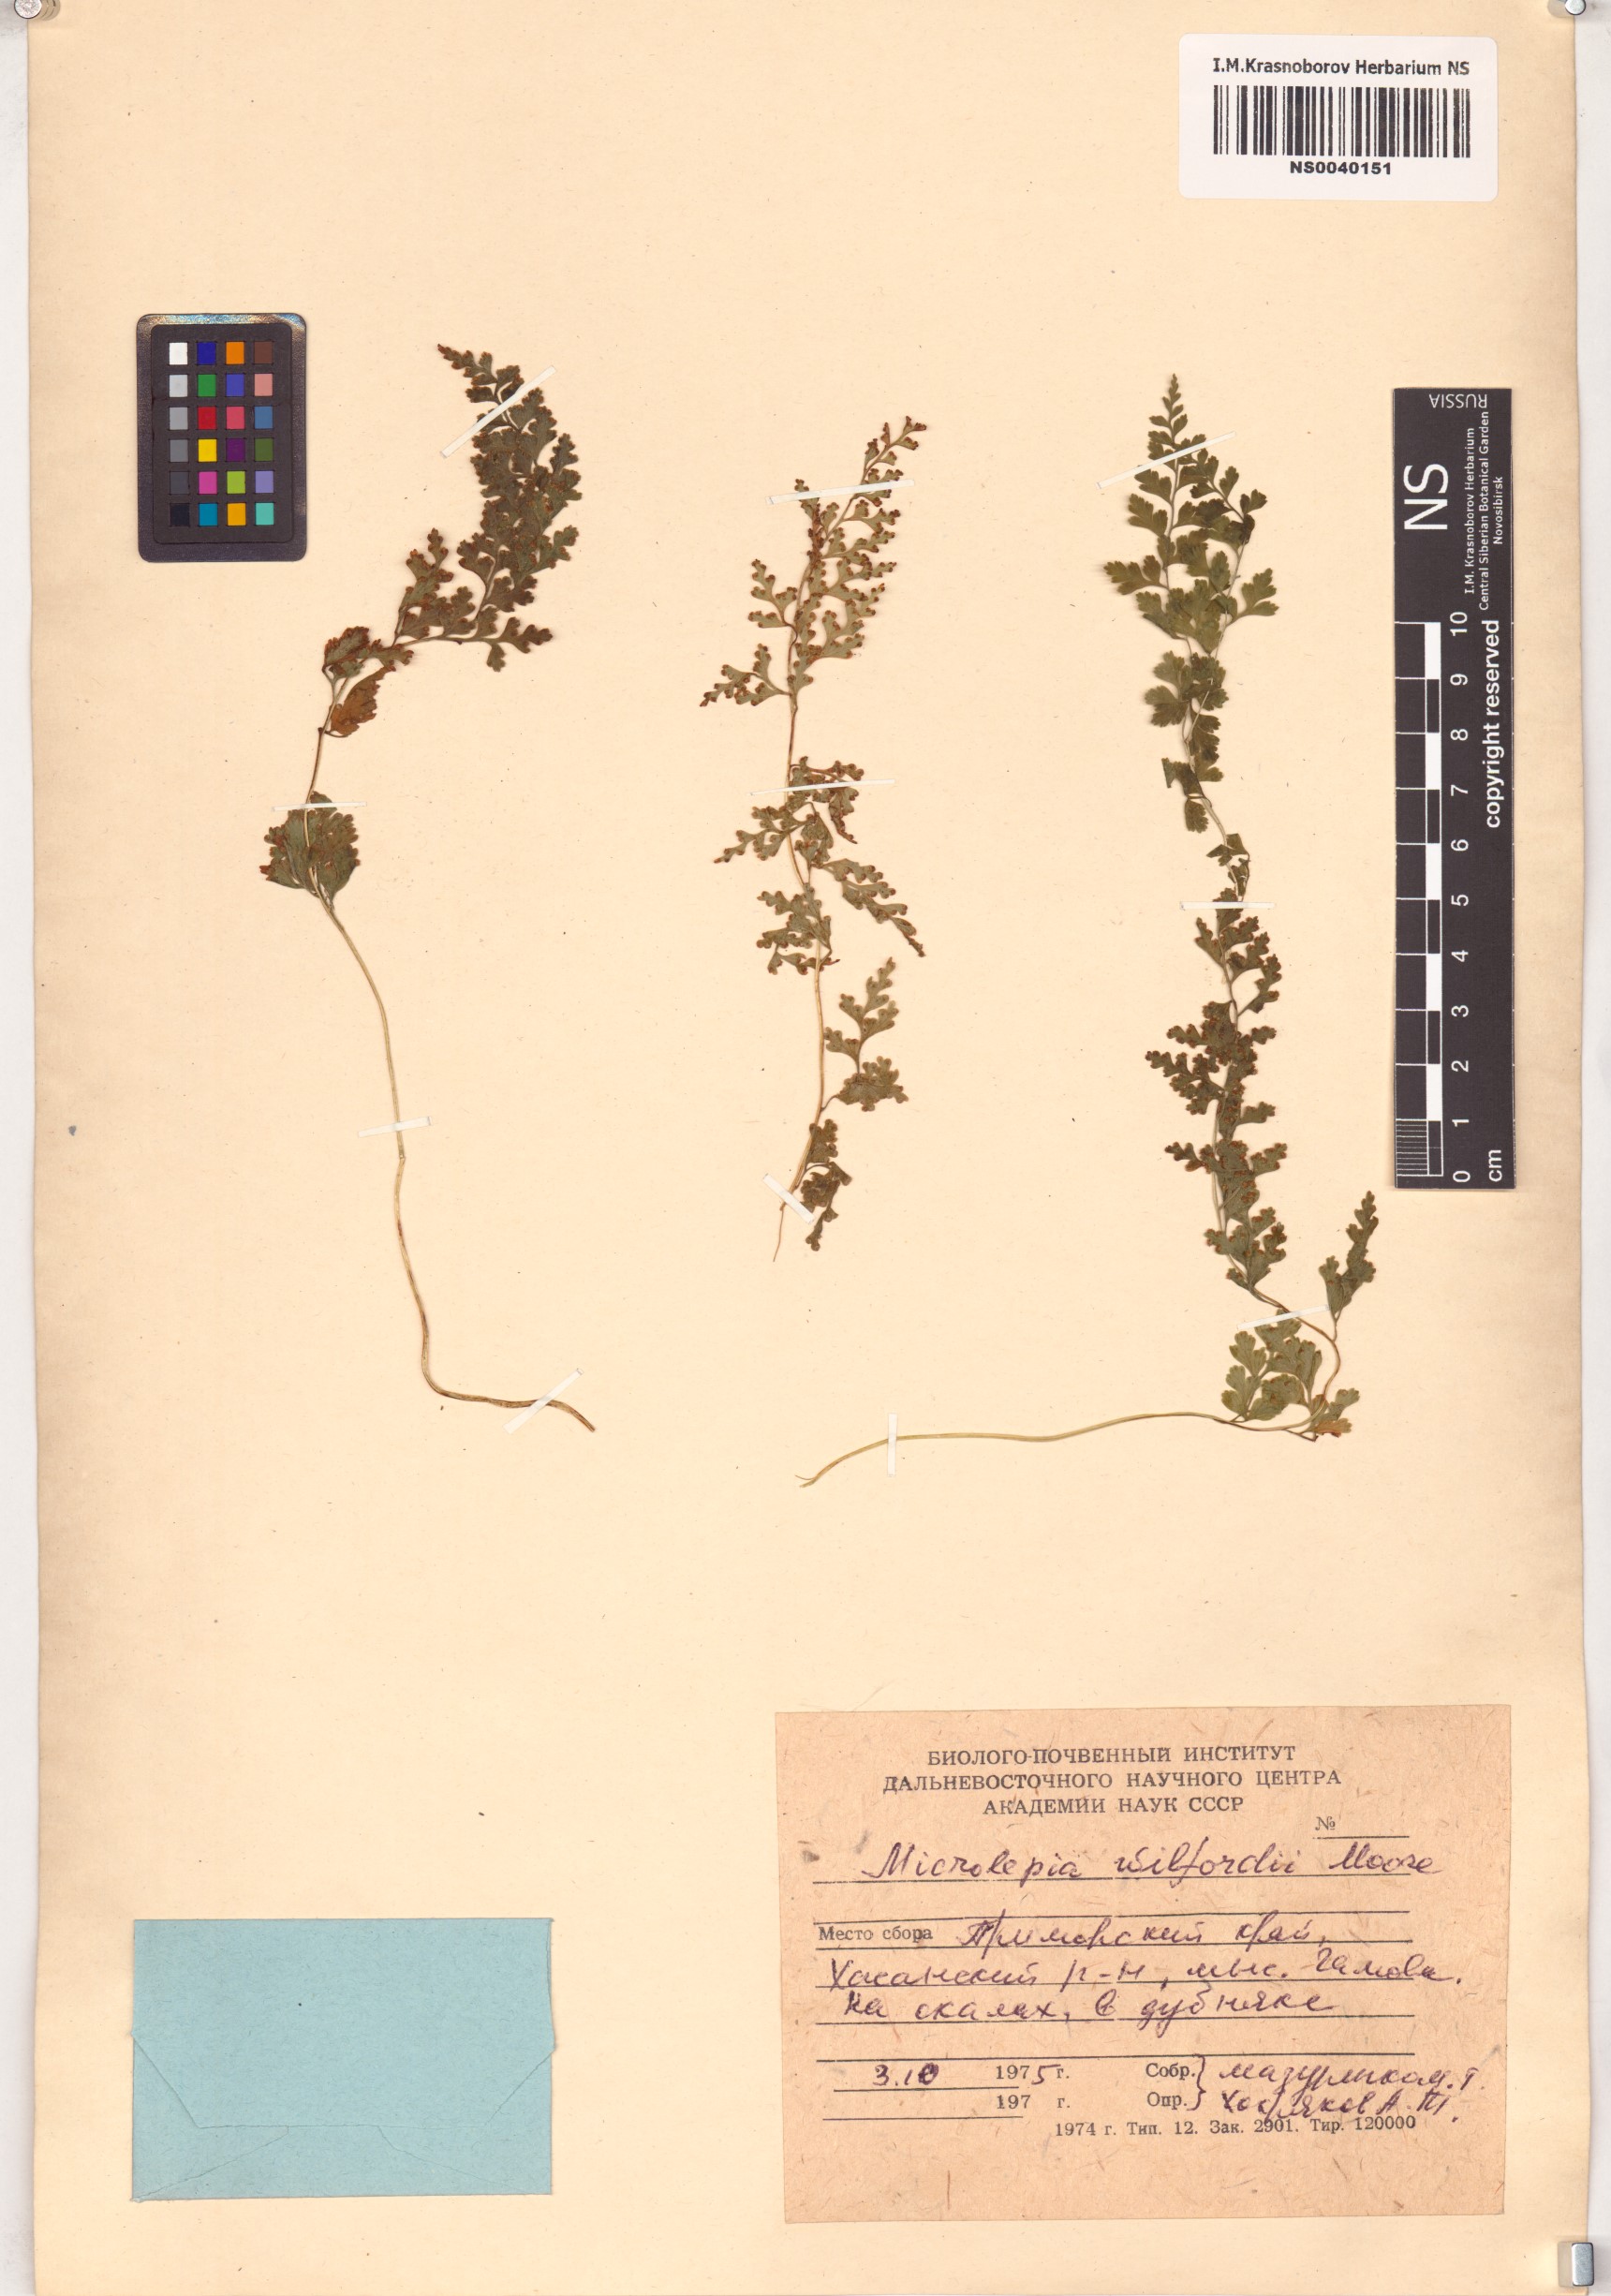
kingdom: Plantae
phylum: Tracheophyta
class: Polypodiopsida
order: Polypodiales
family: Dennstaedtiaceae
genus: Sitobolium
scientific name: Sitobolium wilfordii
